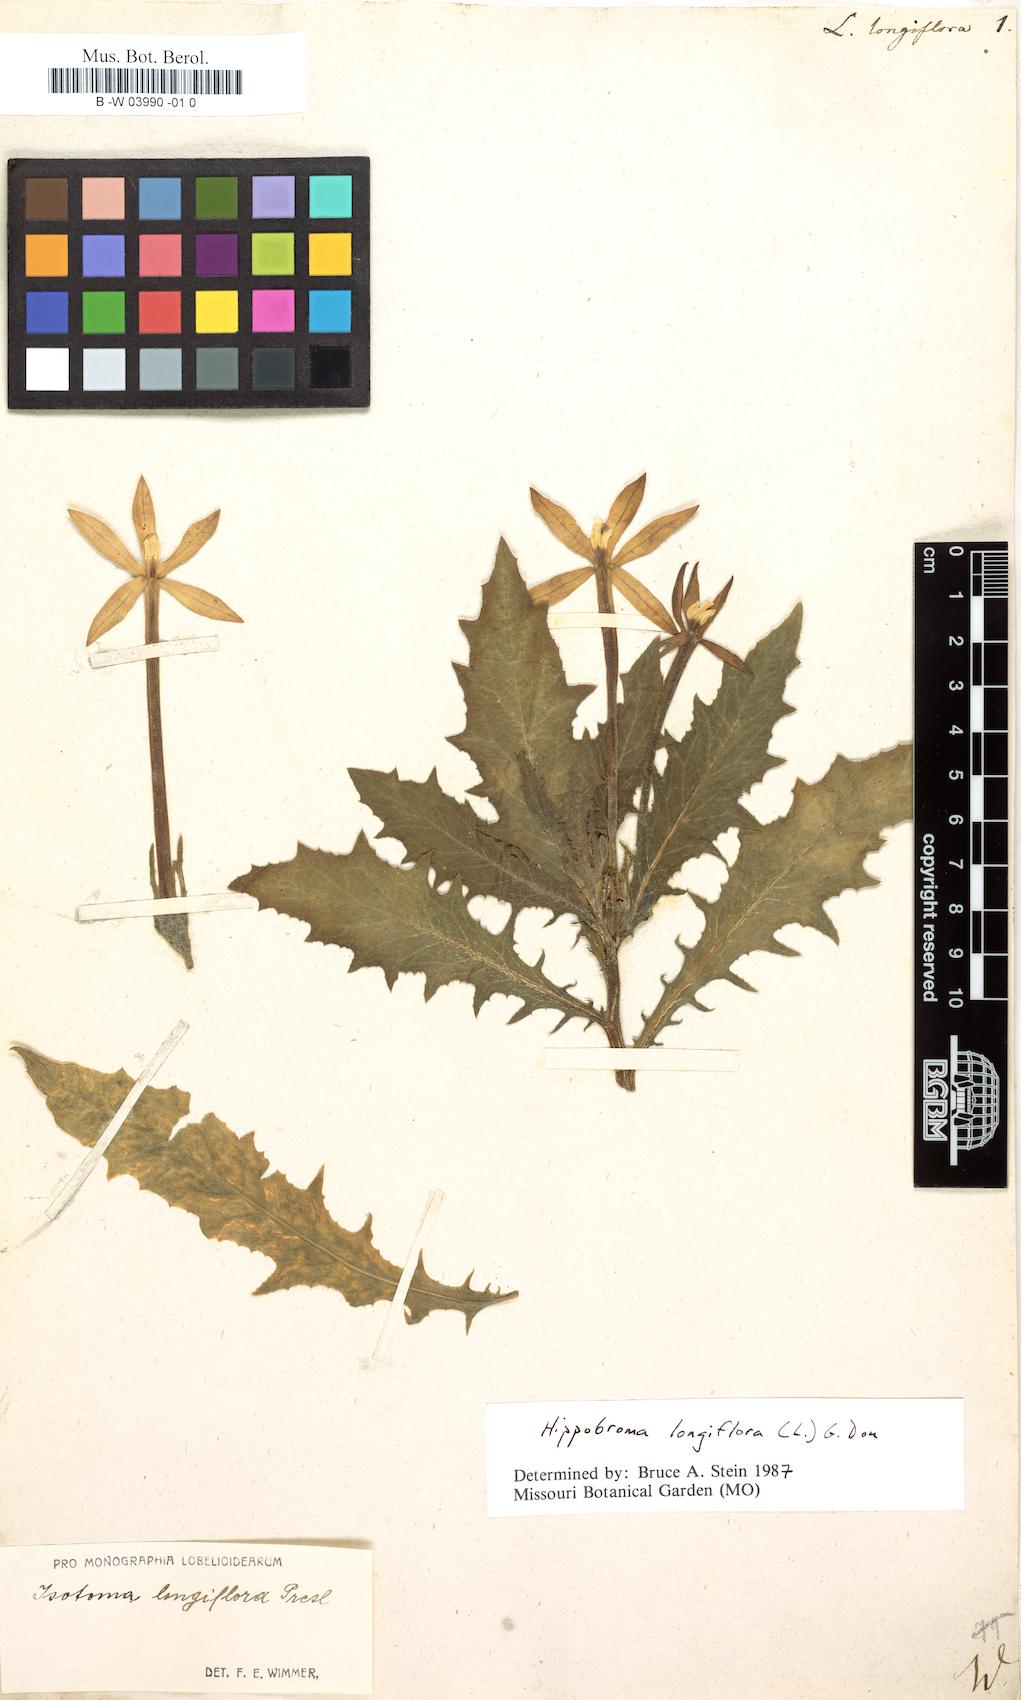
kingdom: Plantae
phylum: Tracheophyta
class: Magnoliopsida
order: Asterales
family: Campanulaceae
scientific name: Campanulaceae
